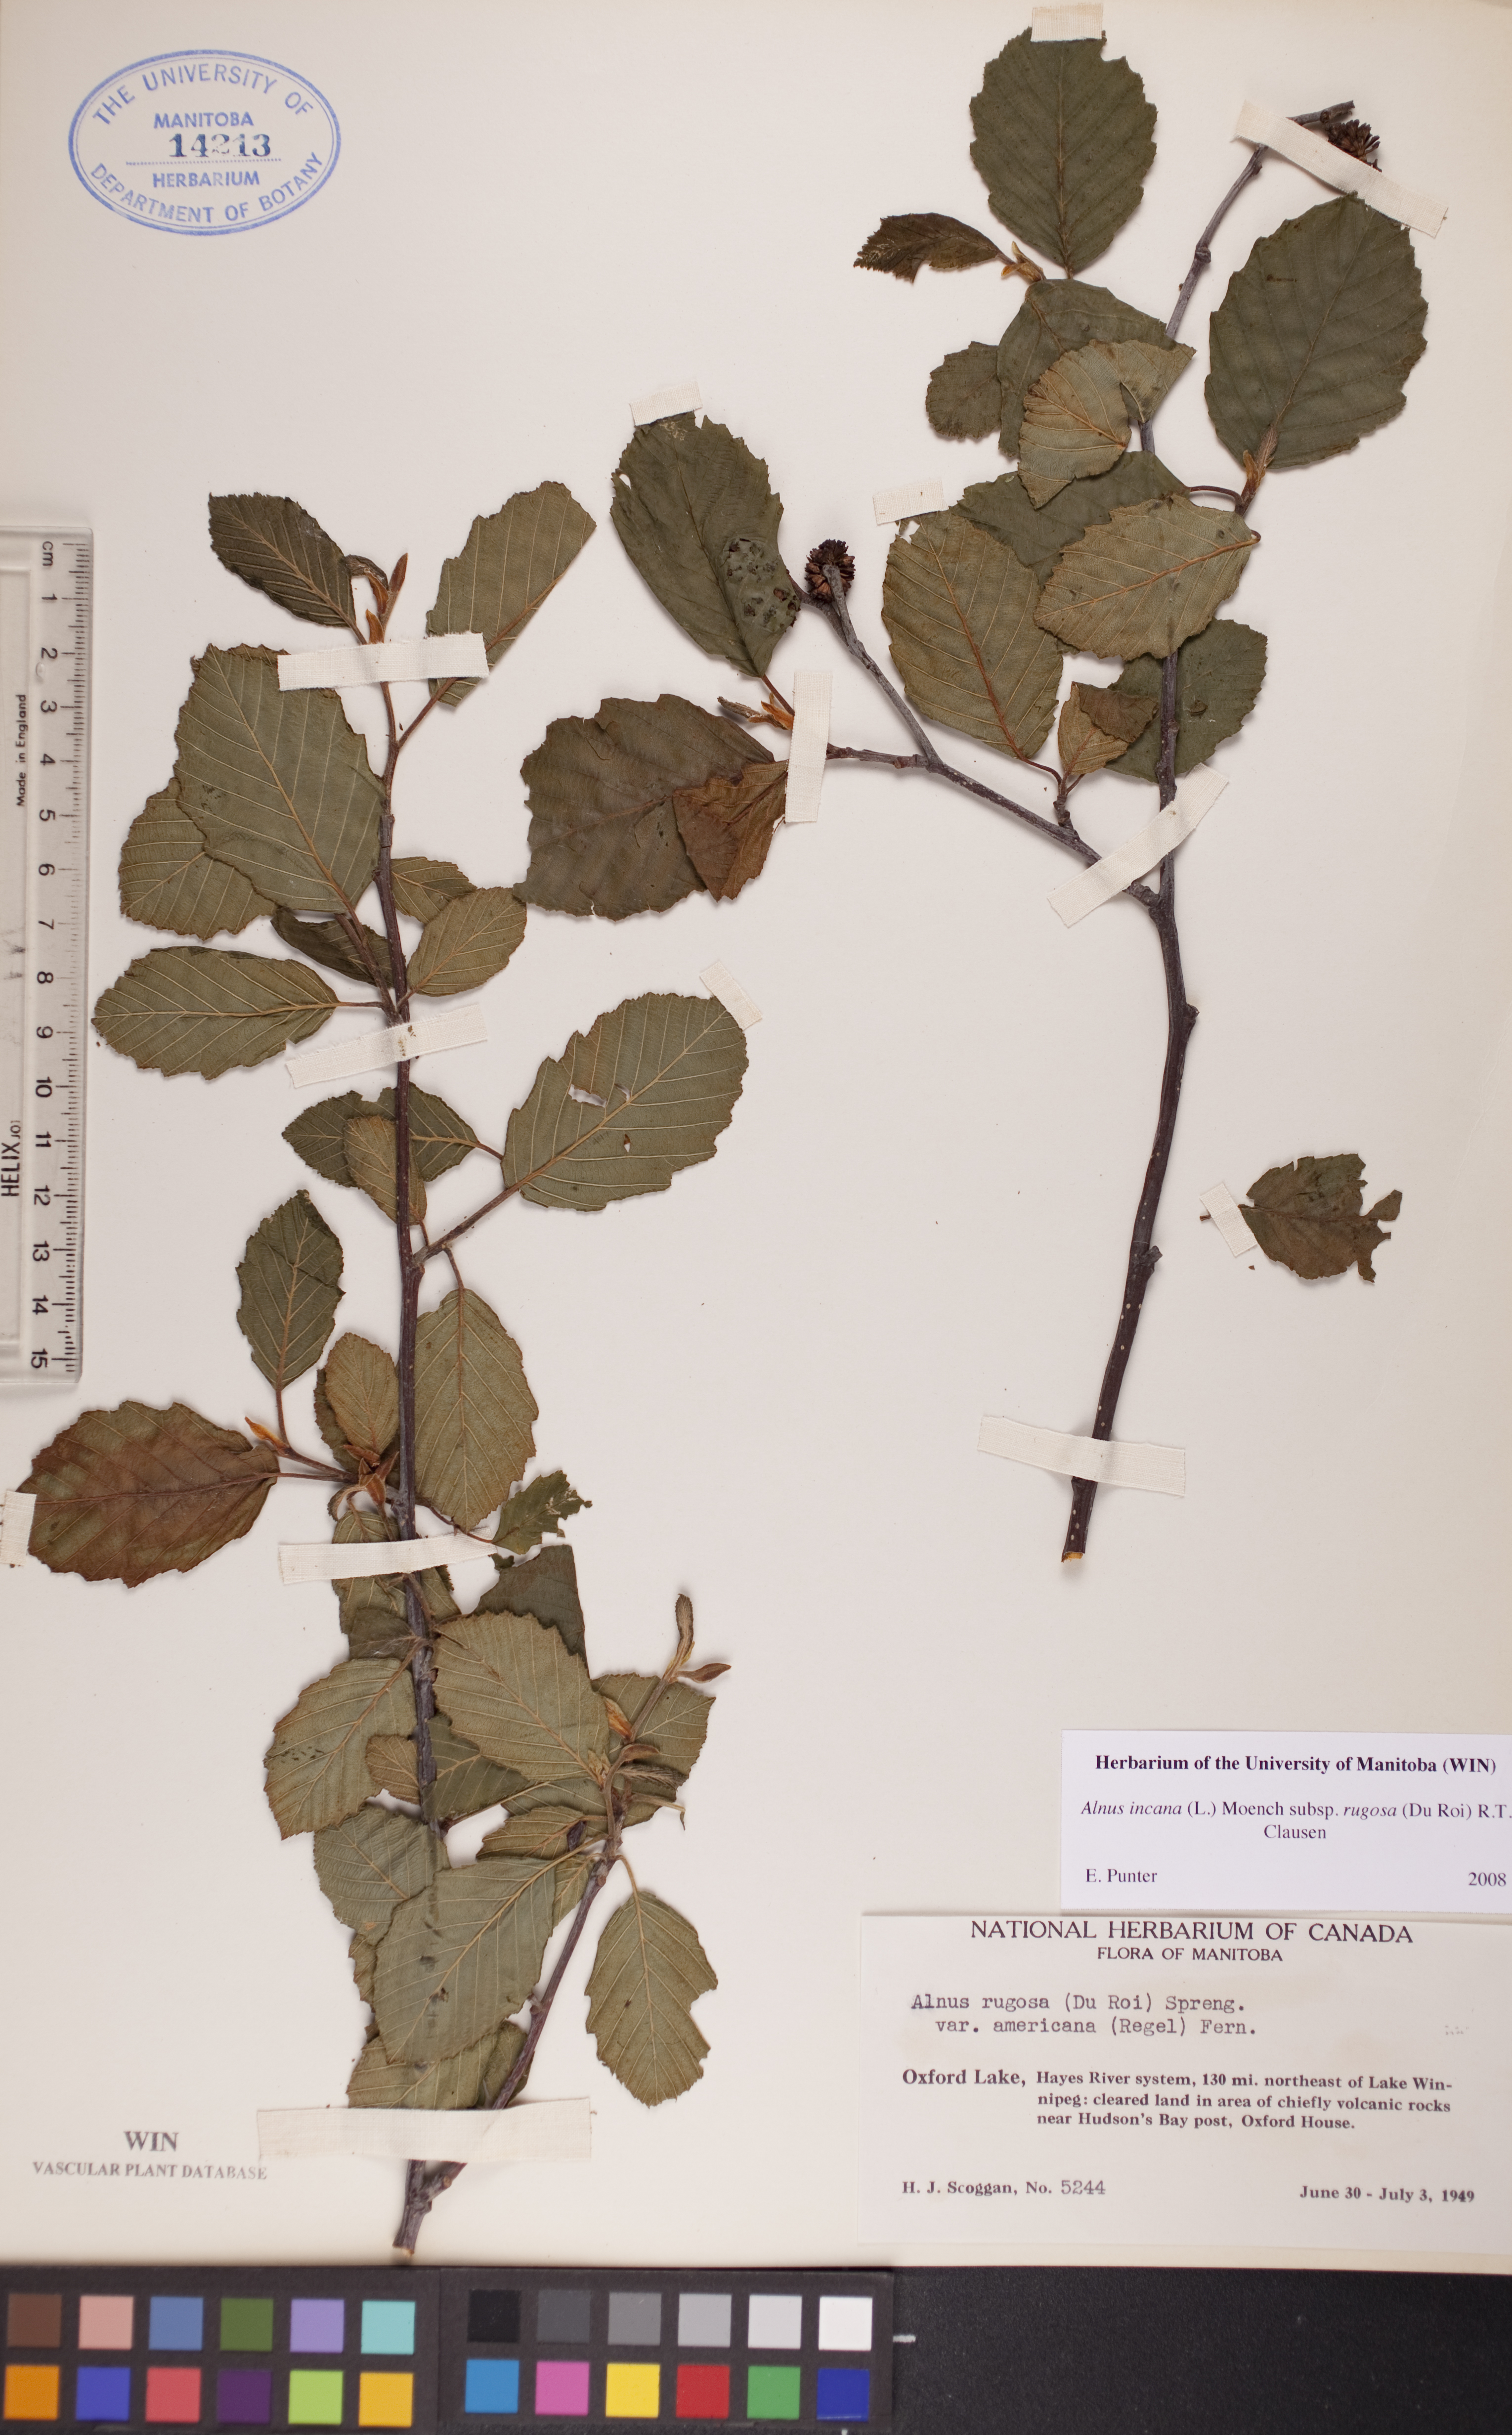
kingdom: Plantae
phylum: Tracheophyta
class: Magnoliopsida
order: Fagales
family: Betulaceae
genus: Alnus
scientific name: Alnus incana
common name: Grey alder
